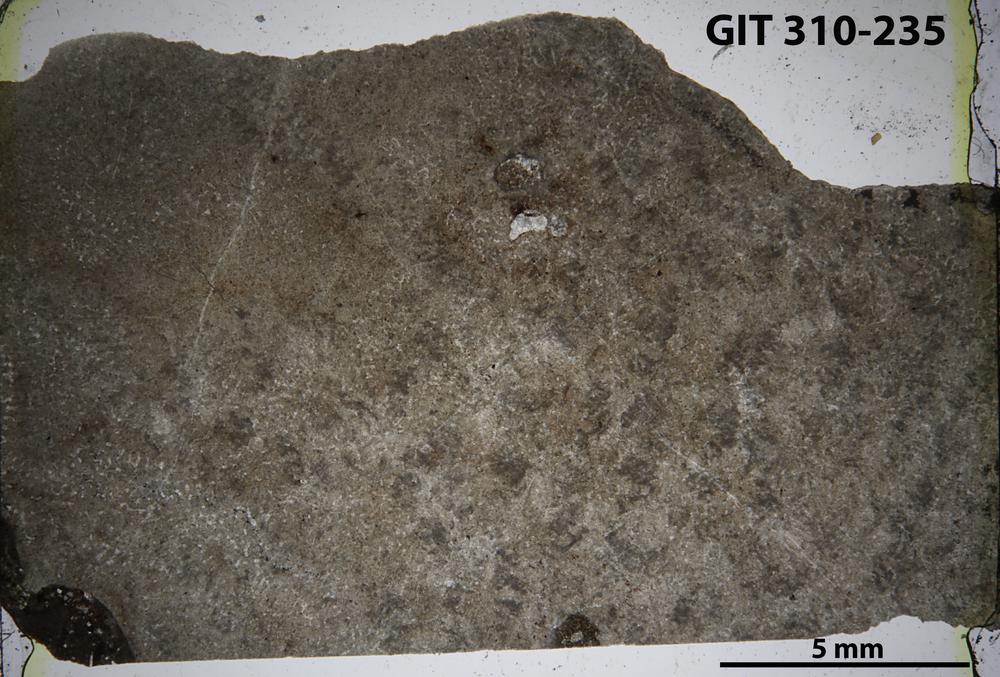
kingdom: Animalia
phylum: Porifera
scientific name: Porifera
